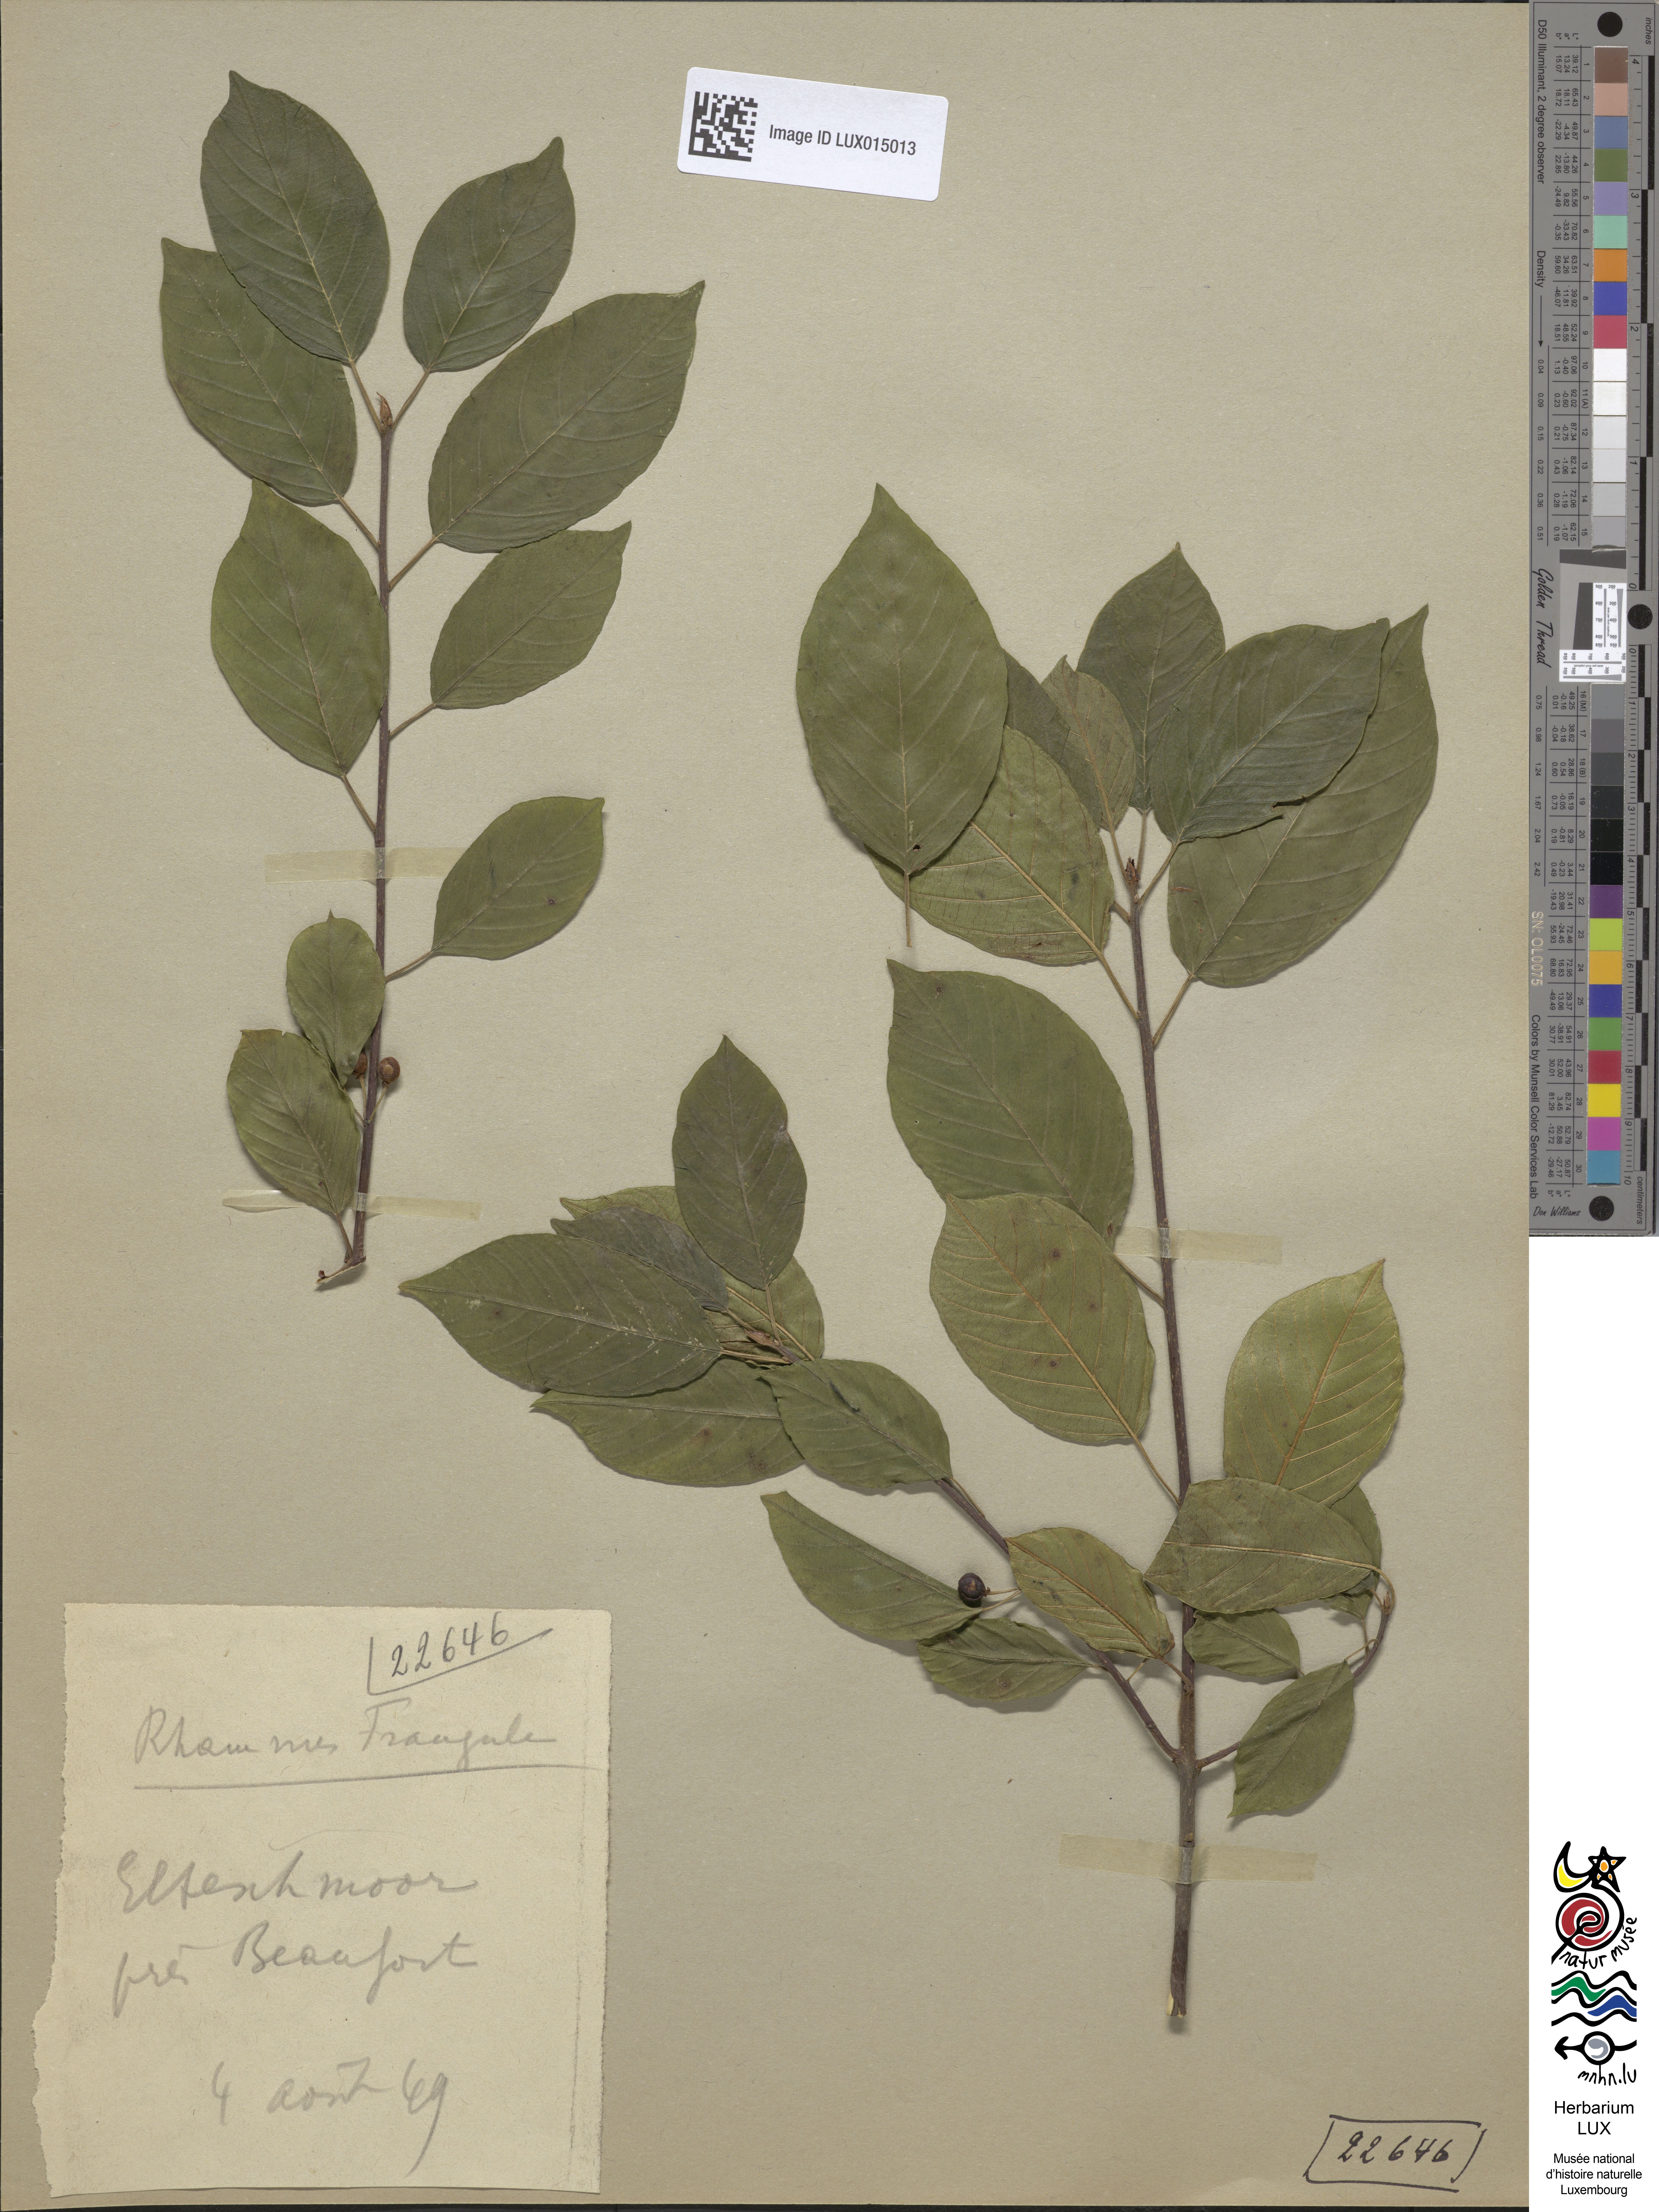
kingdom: Plantae
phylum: Tracheophyta
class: Magnoliopsida
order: Rosales
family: Rhamnaceae
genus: Frangula
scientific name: Frangula alnus
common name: Alder buckthorn
